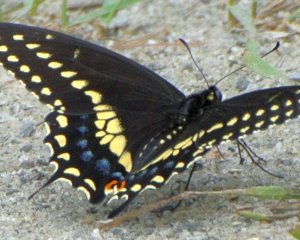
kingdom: Animalia
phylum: Arthropoda
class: Insecta
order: Lepidoptera
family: Papilionidae
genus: Papilio
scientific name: Papilio polyxenes
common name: Black Swallowtail
